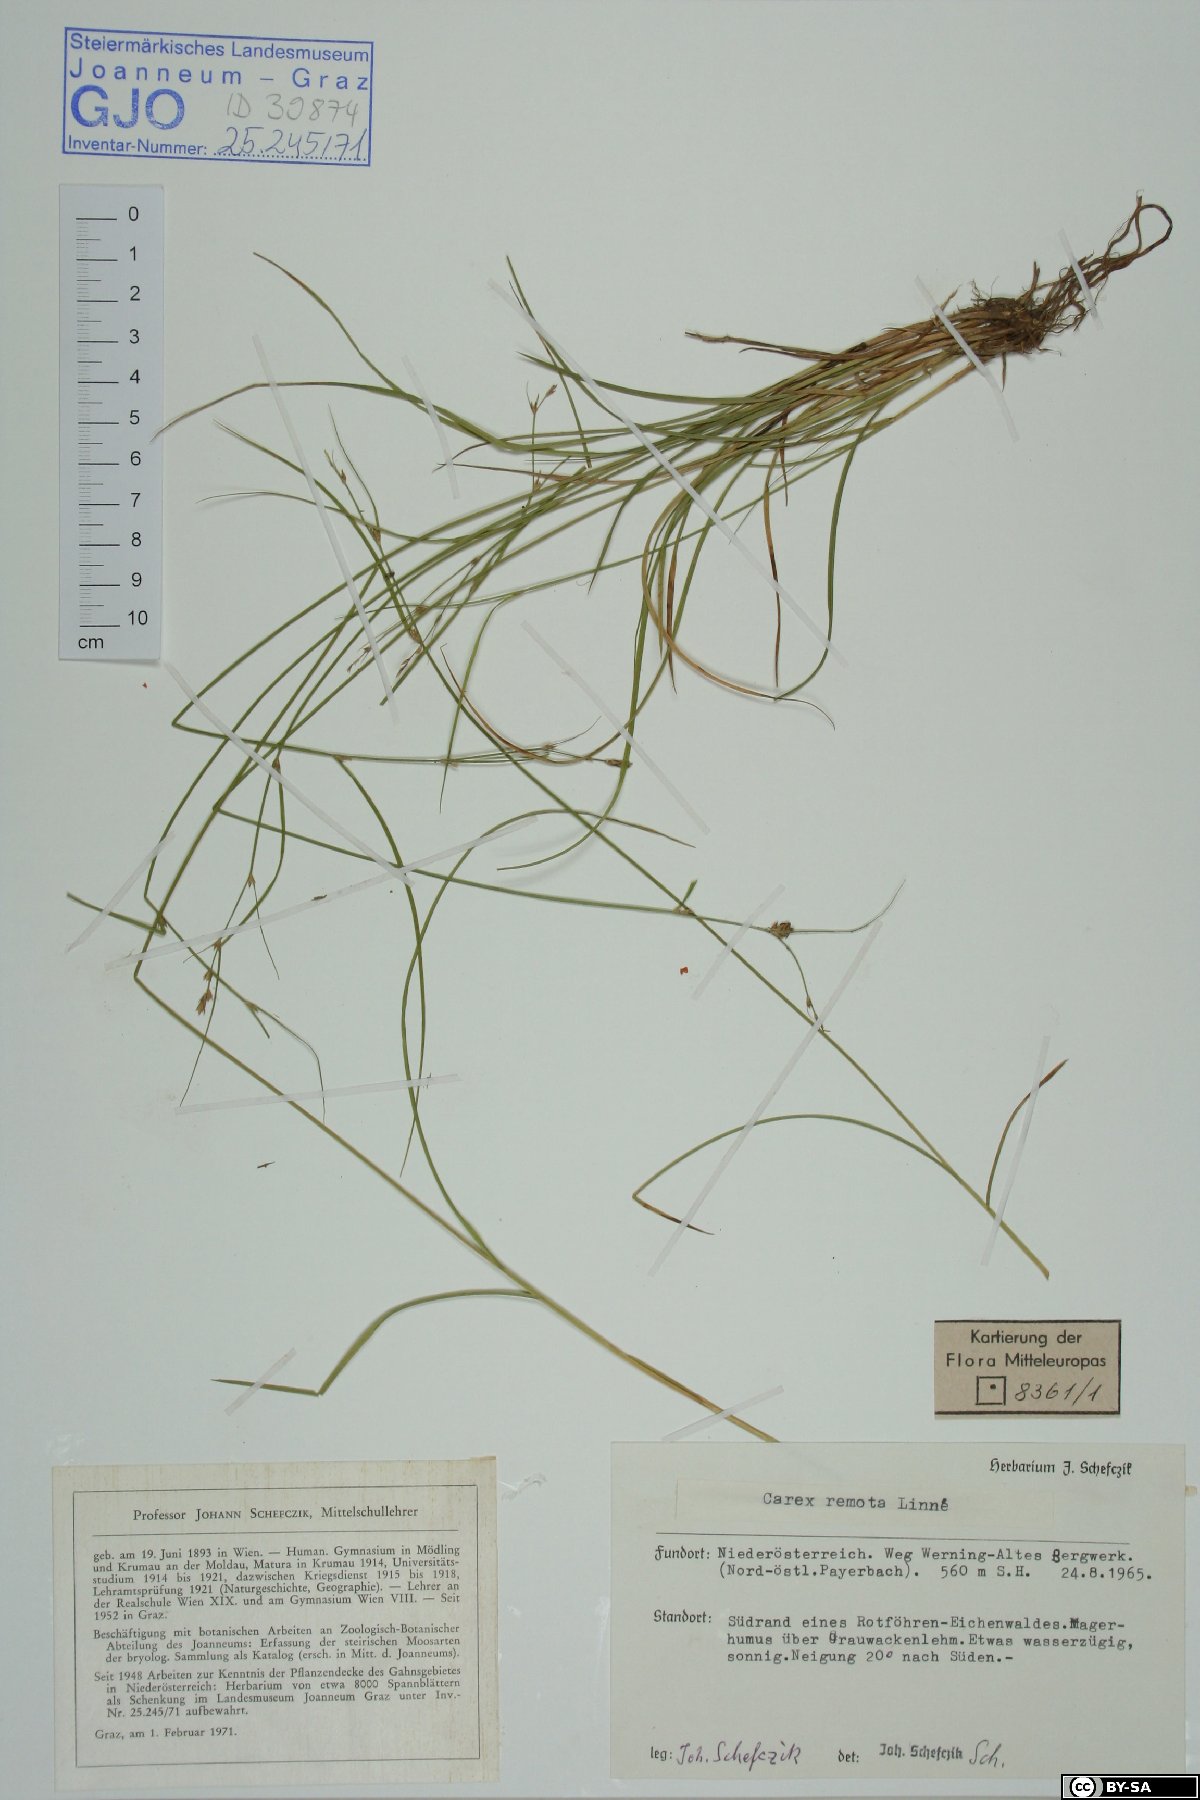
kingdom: Plantae
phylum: Tracheophyta
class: Liliopsida
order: Poales
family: Cyperaceae
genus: Carex
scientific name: Carex remota
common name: Remote sedge
